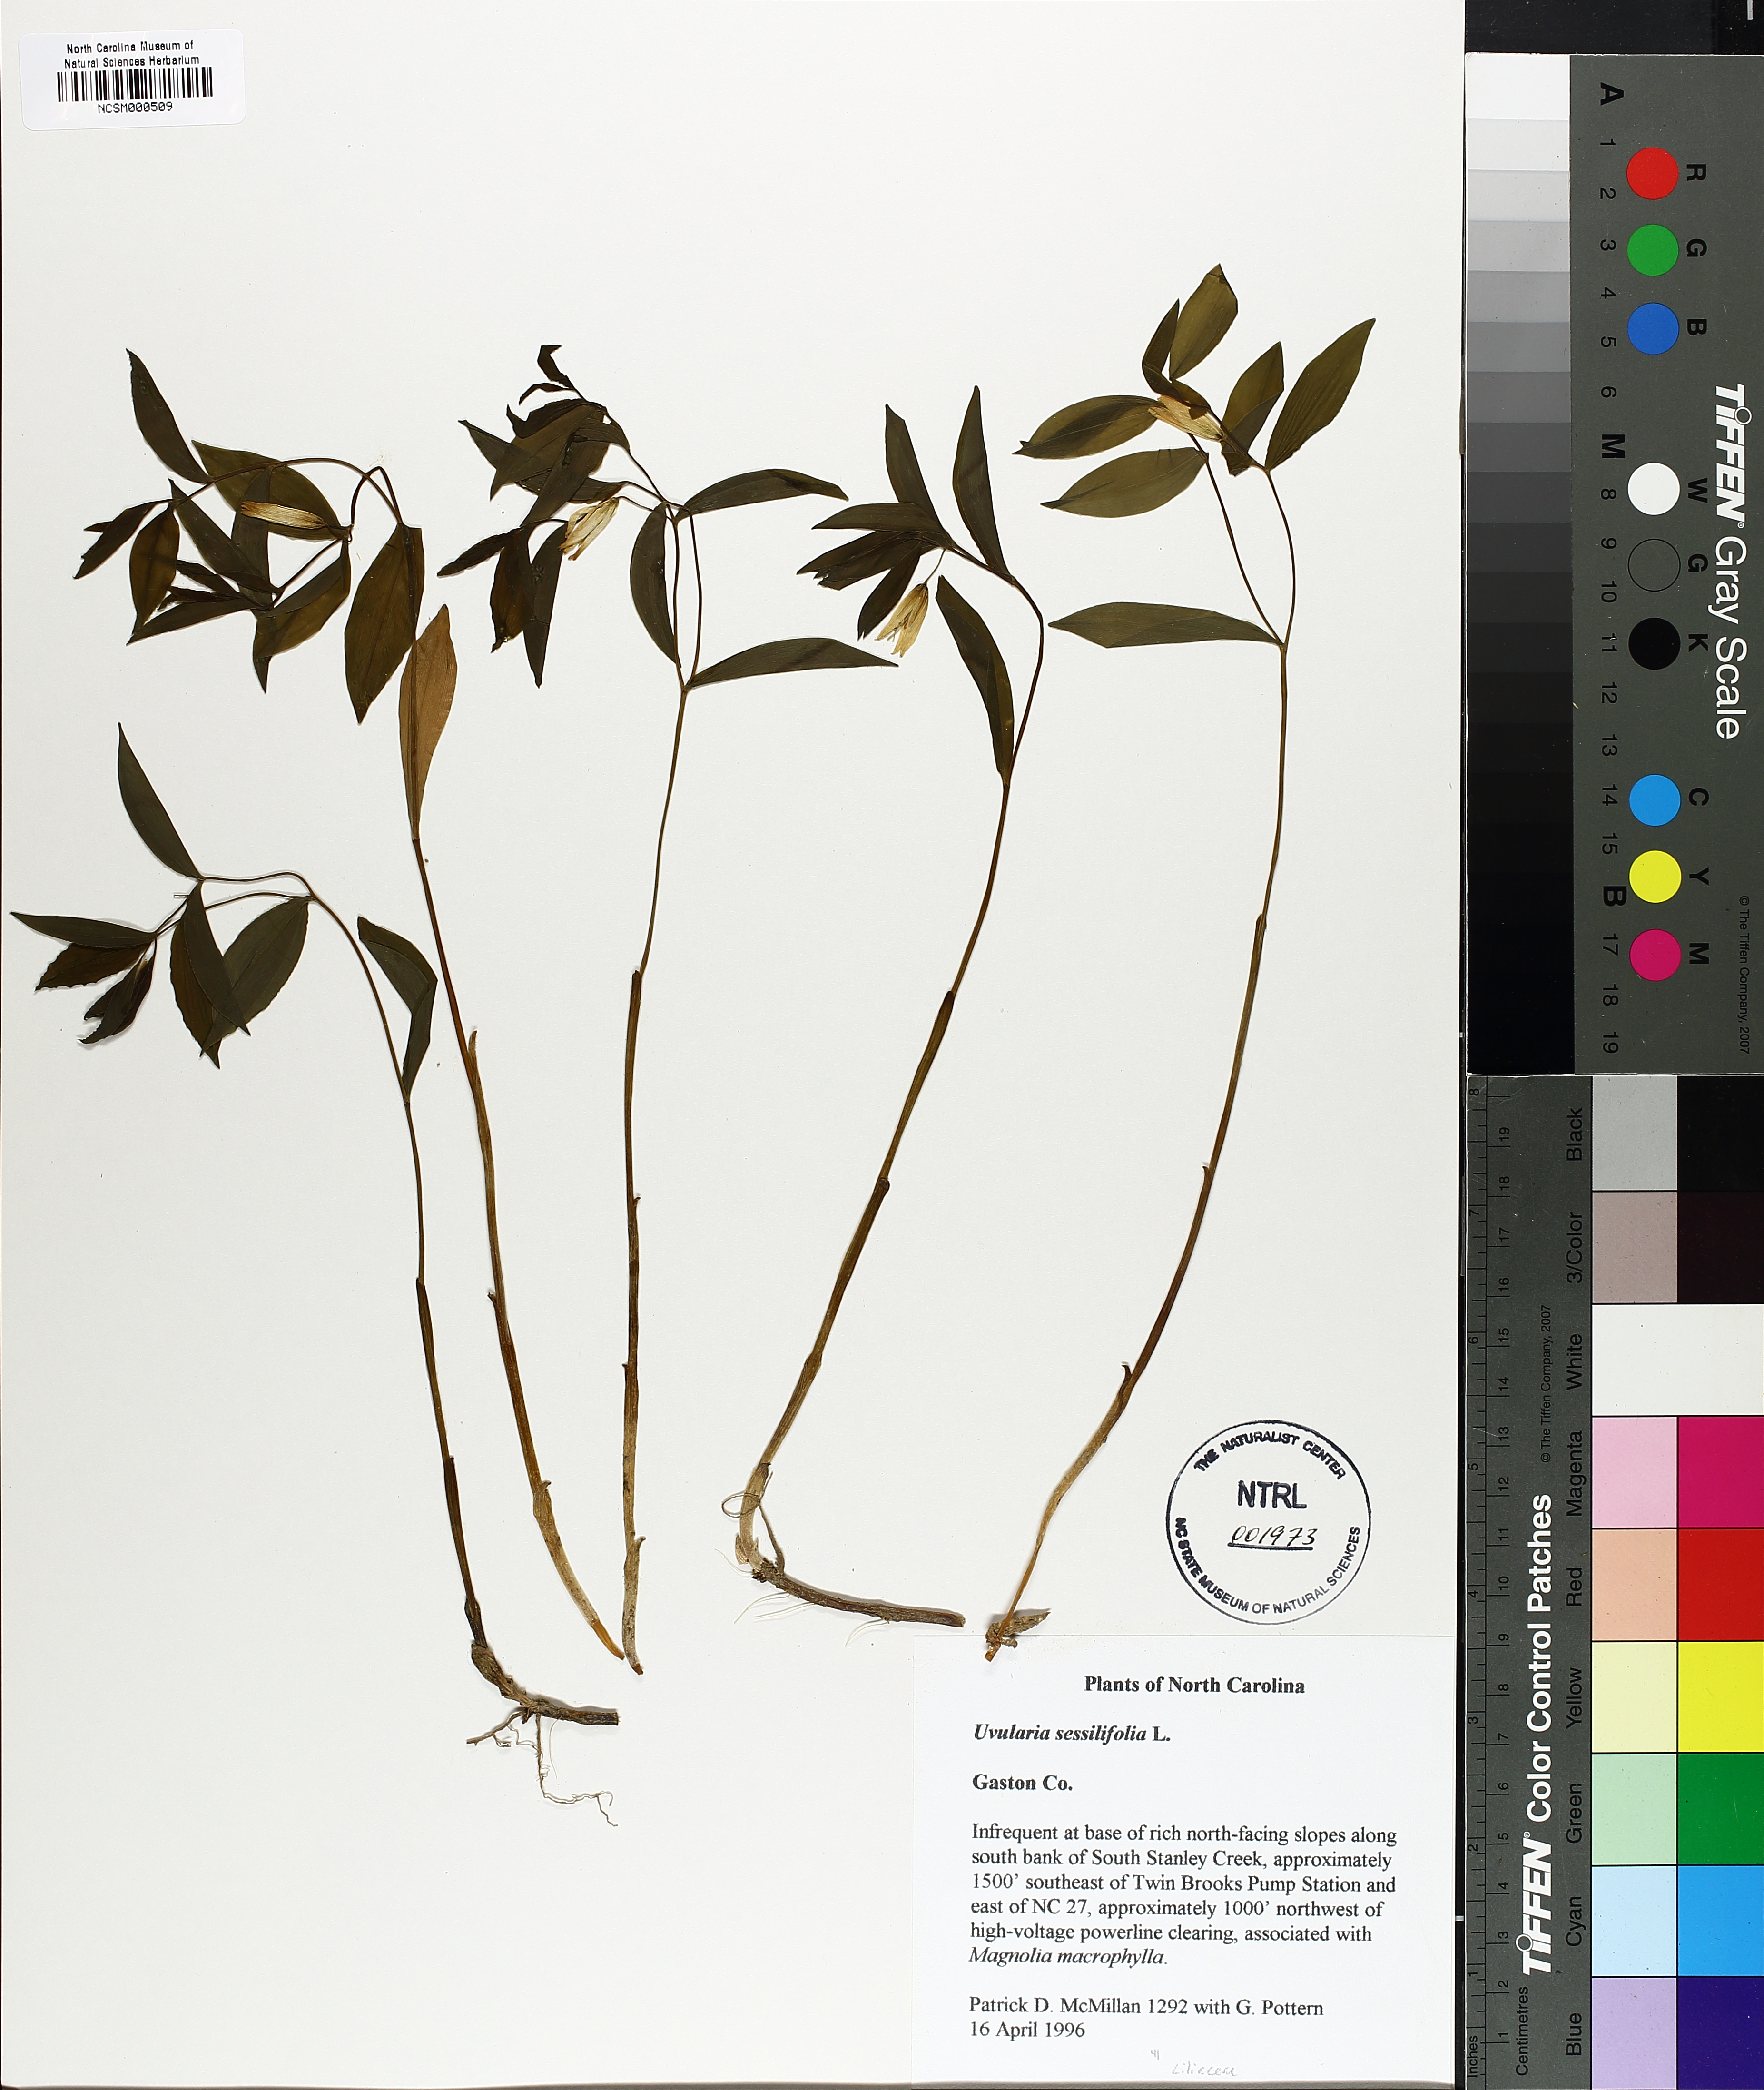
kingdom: Plantae
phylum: Tracheophyta
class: Liliopsida
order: Liliales
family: Colchicaceae
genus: Uvularia
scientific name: Uvularia sessilifolia
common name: Straw-lily
